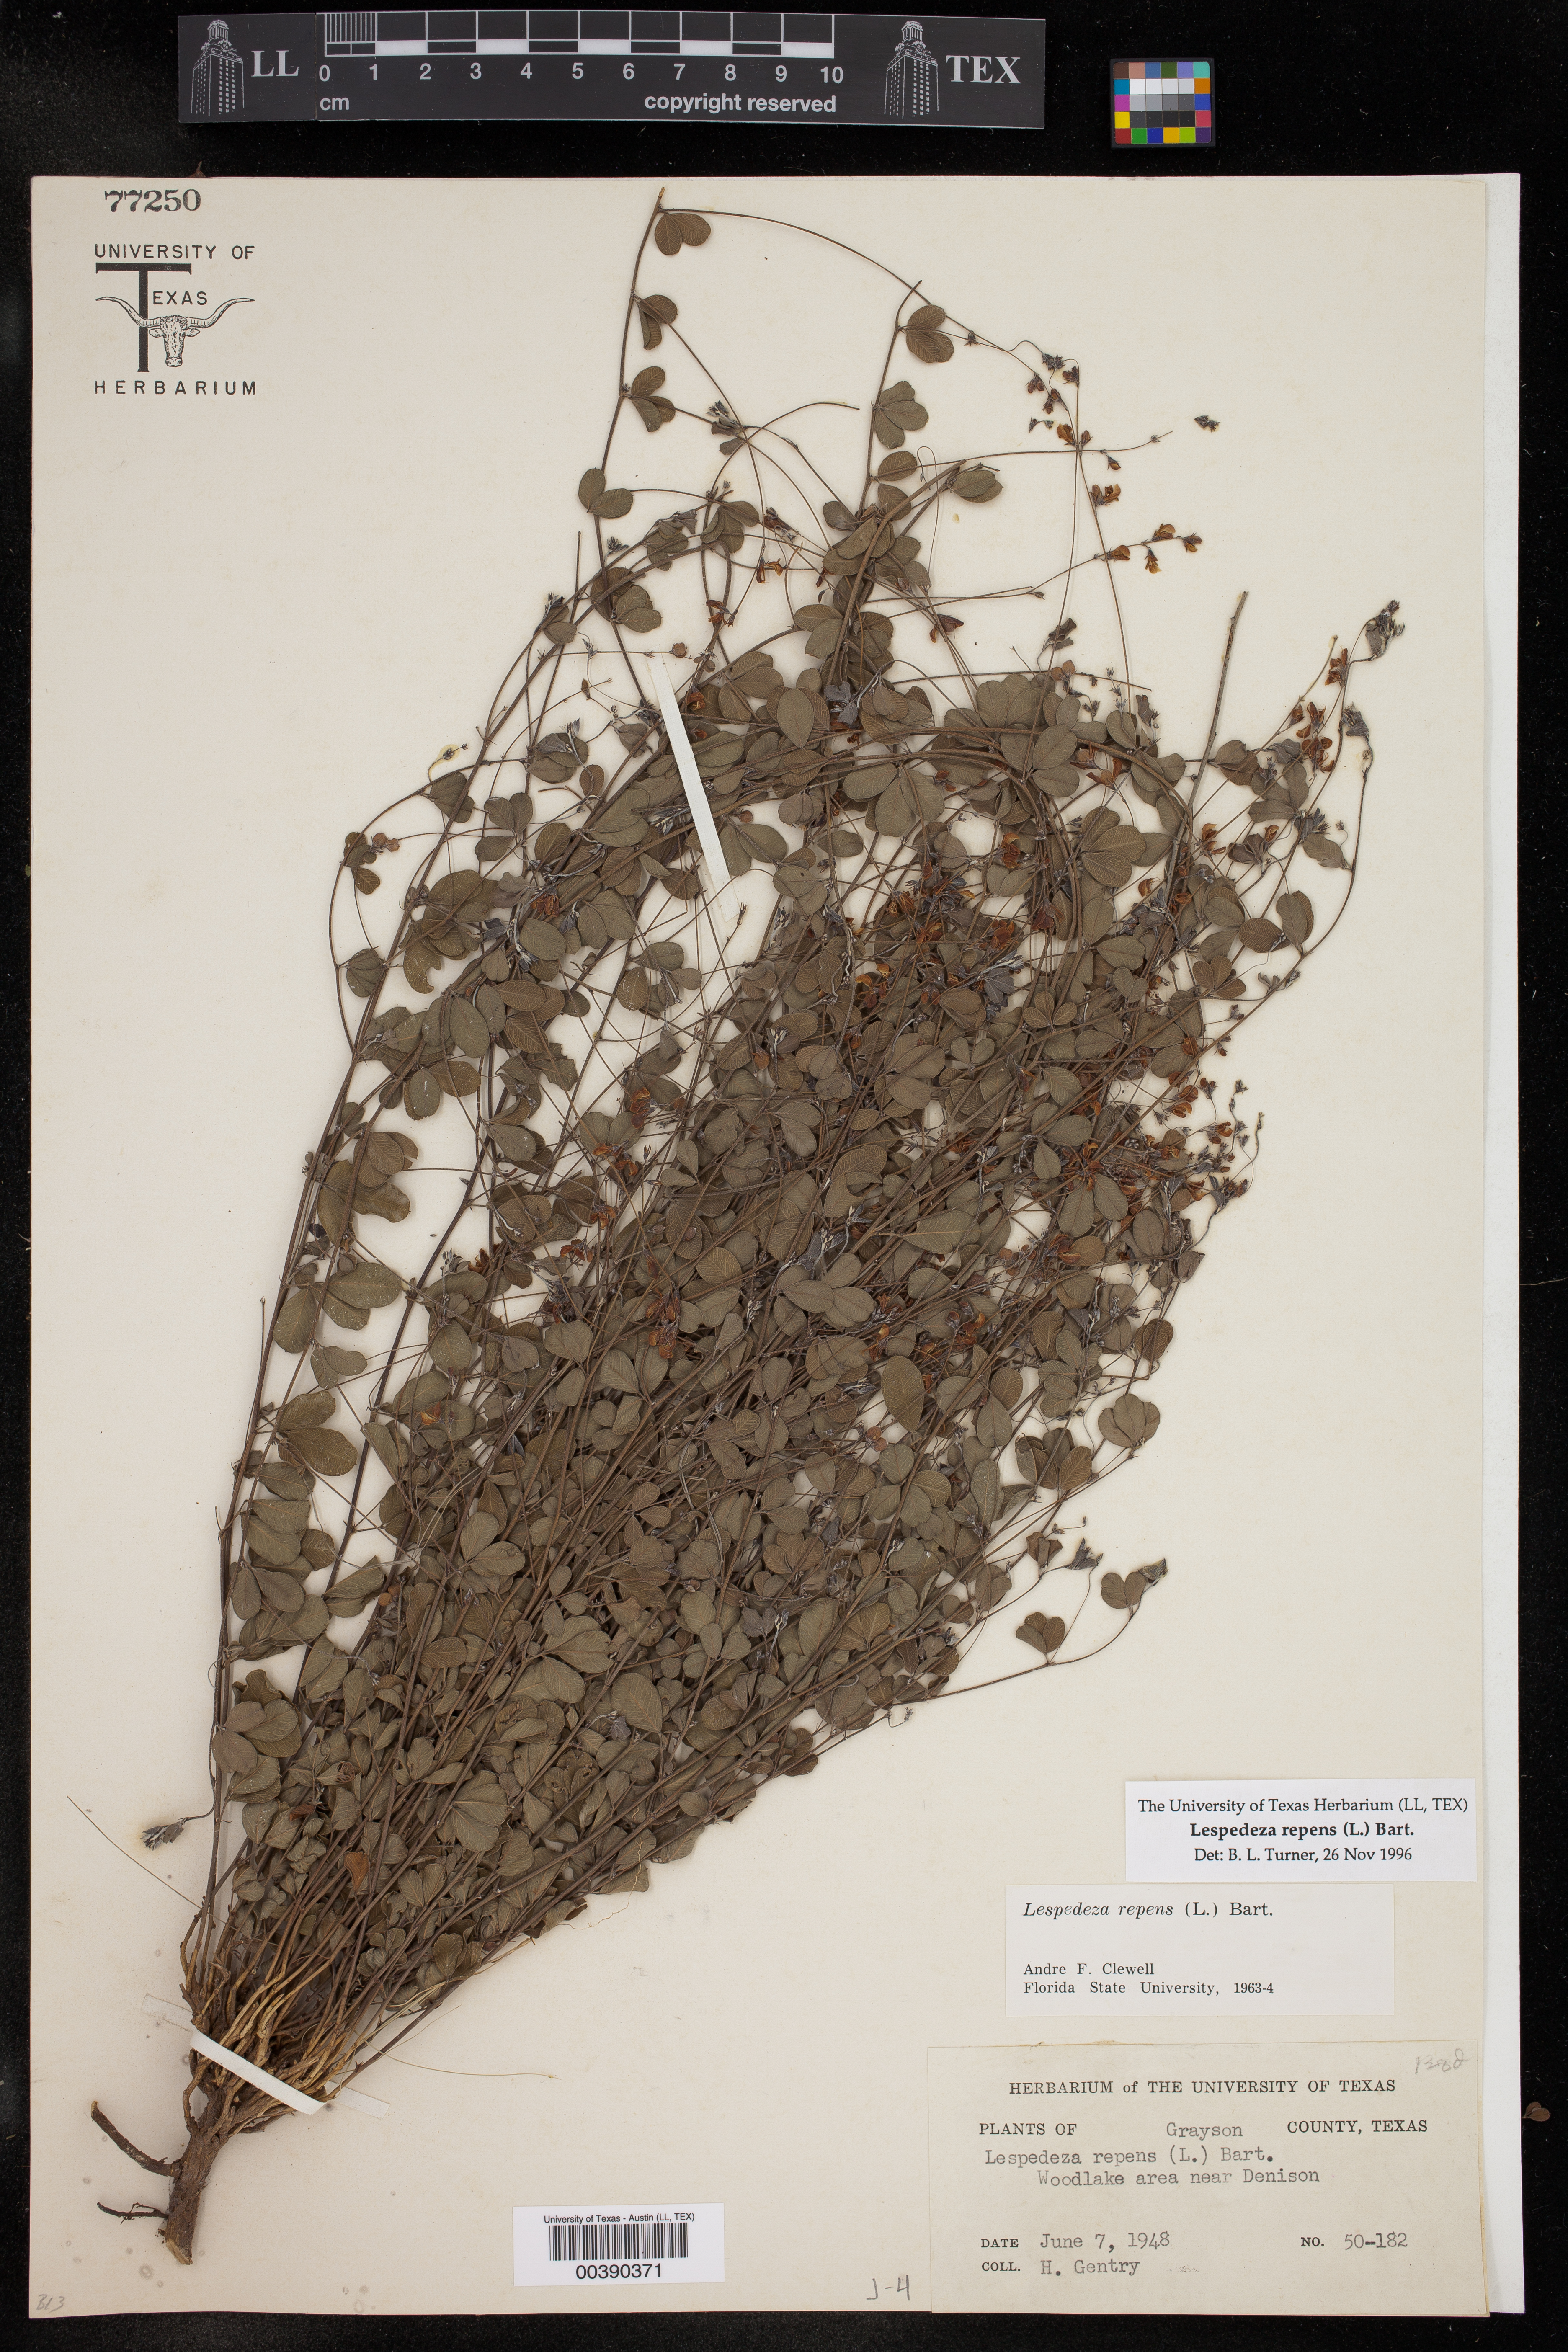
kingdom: Plantae
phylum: Tracheophyta
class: Magnoliopsida
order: Fabales
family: Fabaceae
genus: Lespedeza
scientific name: Lespedeza repens
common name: Creeping bush-clover
